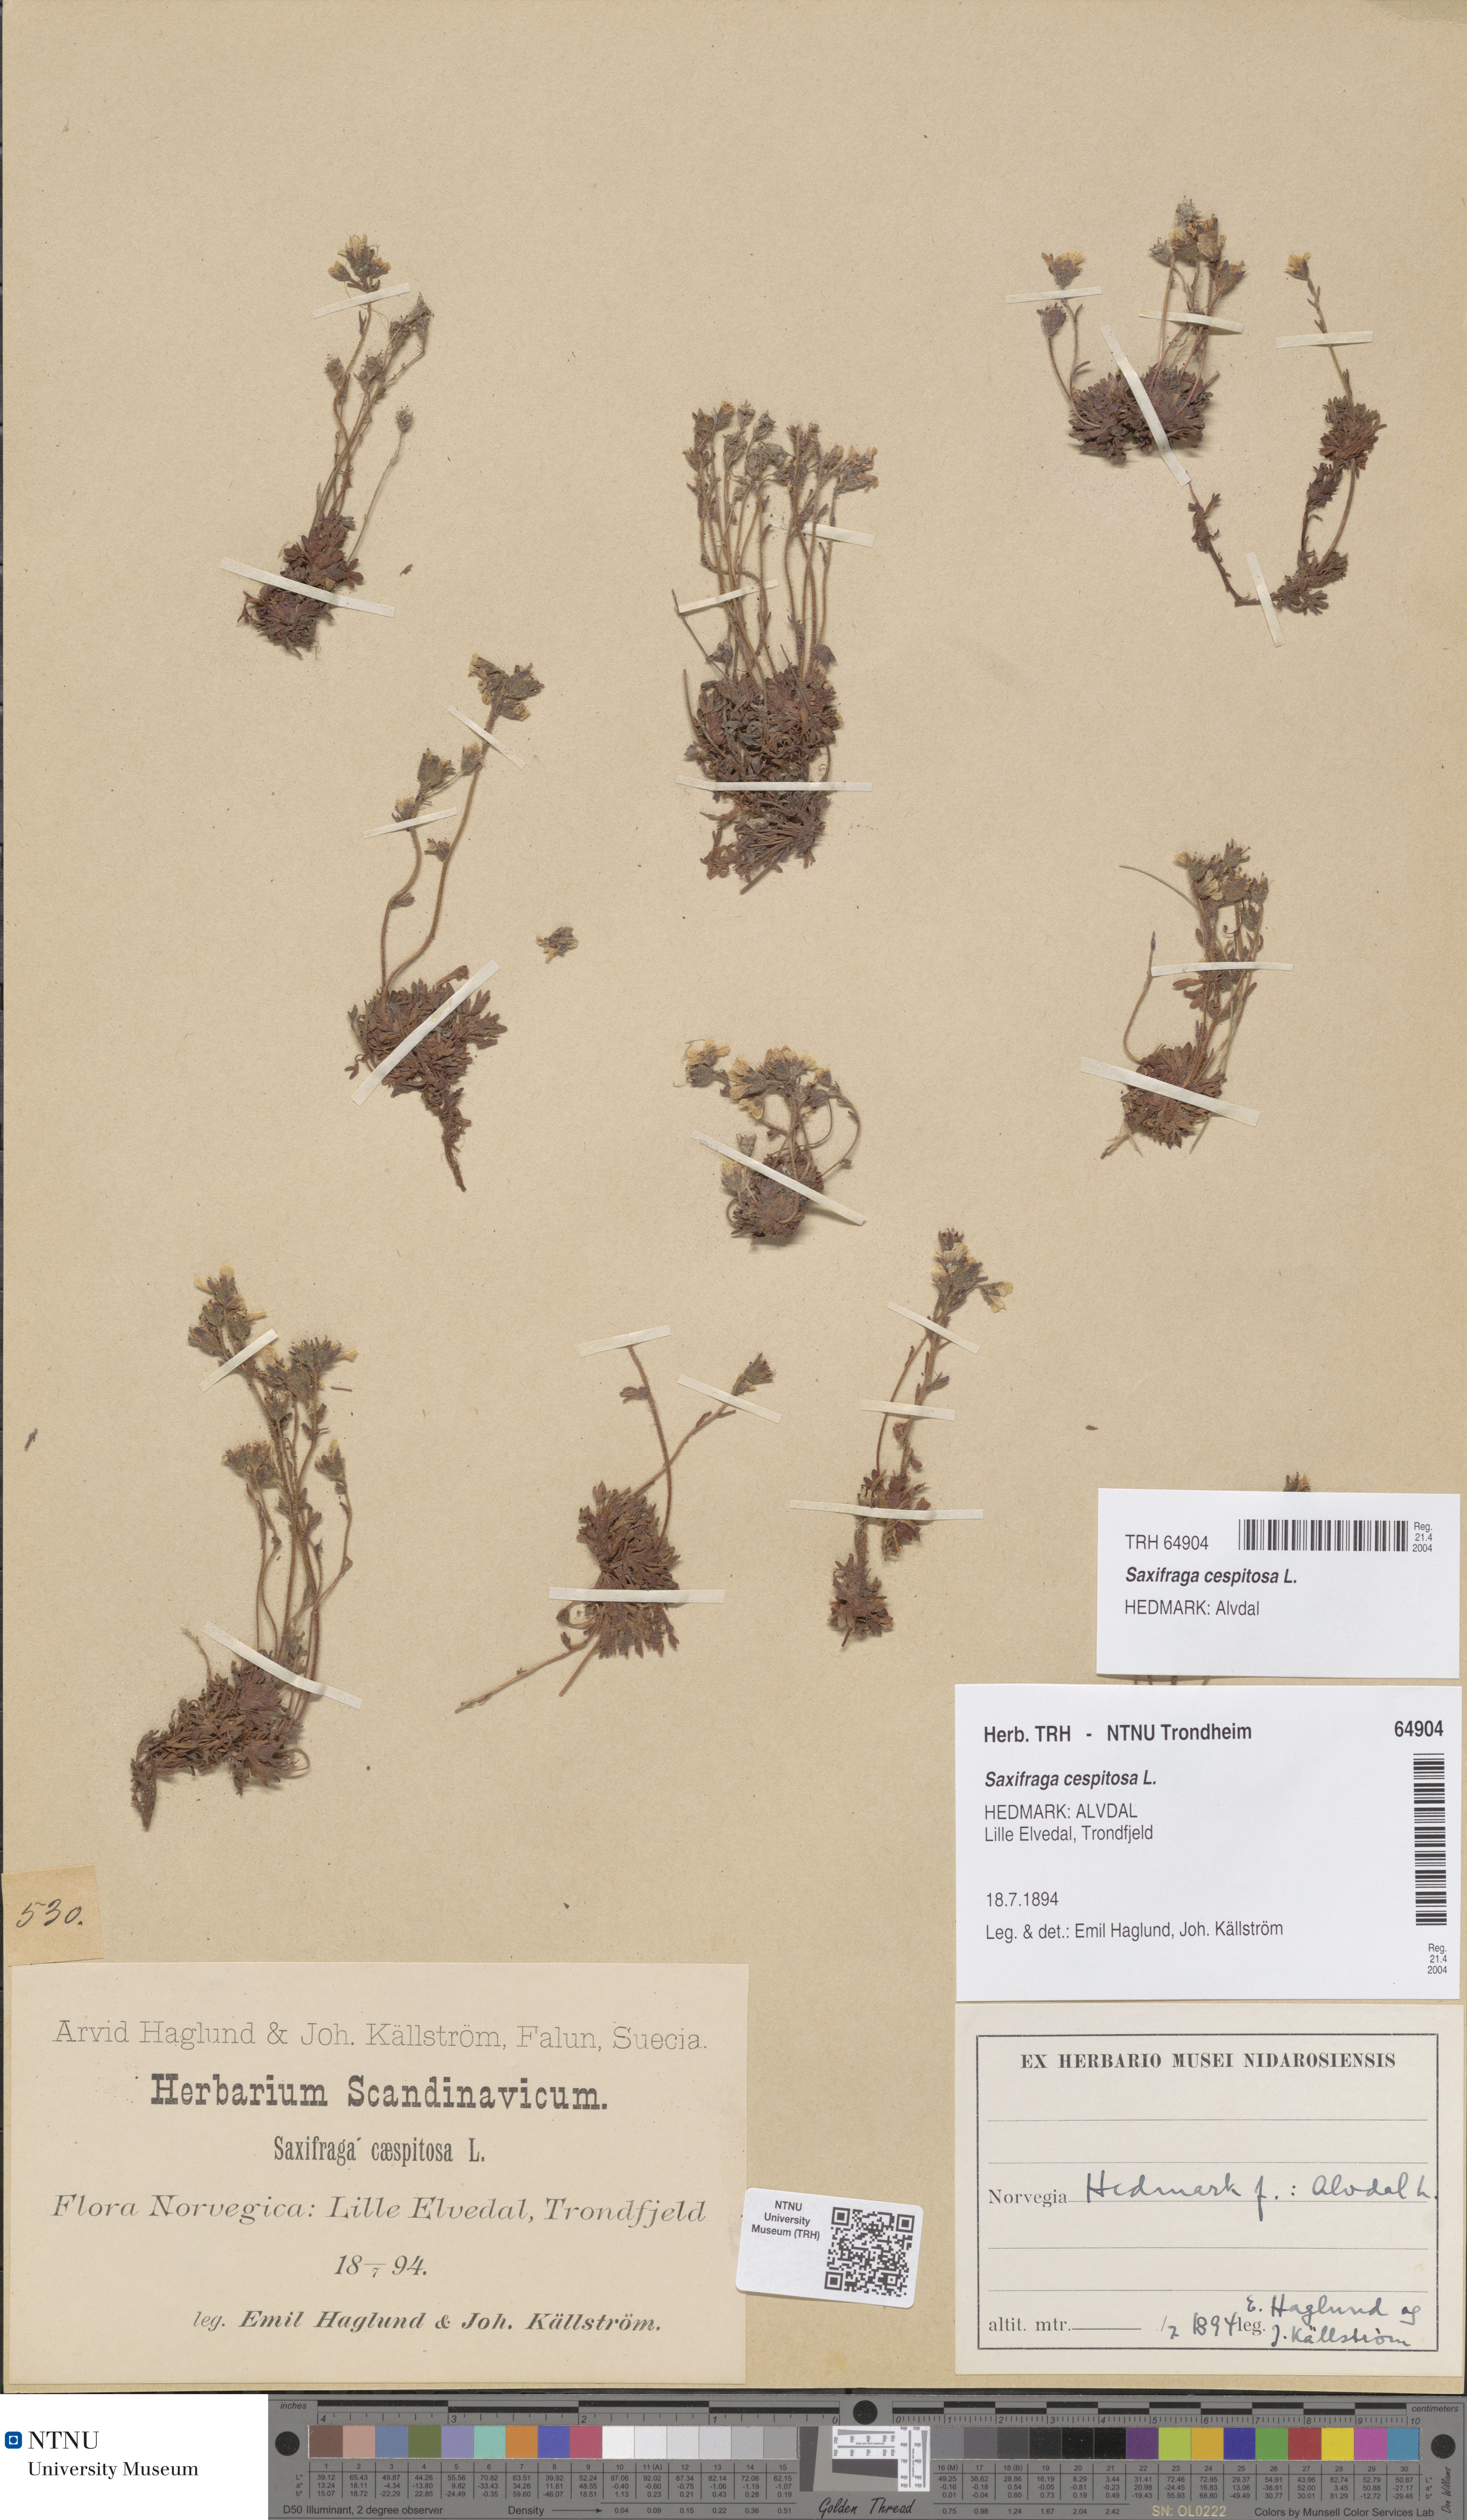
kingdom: Plantae
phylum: Tracheophyta
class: Magnoliopsida
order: Saxifragales
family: Saxifragaceae
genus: Saxifraga
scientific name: Saxifraga cespitosa
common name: Tufted saxifrage
